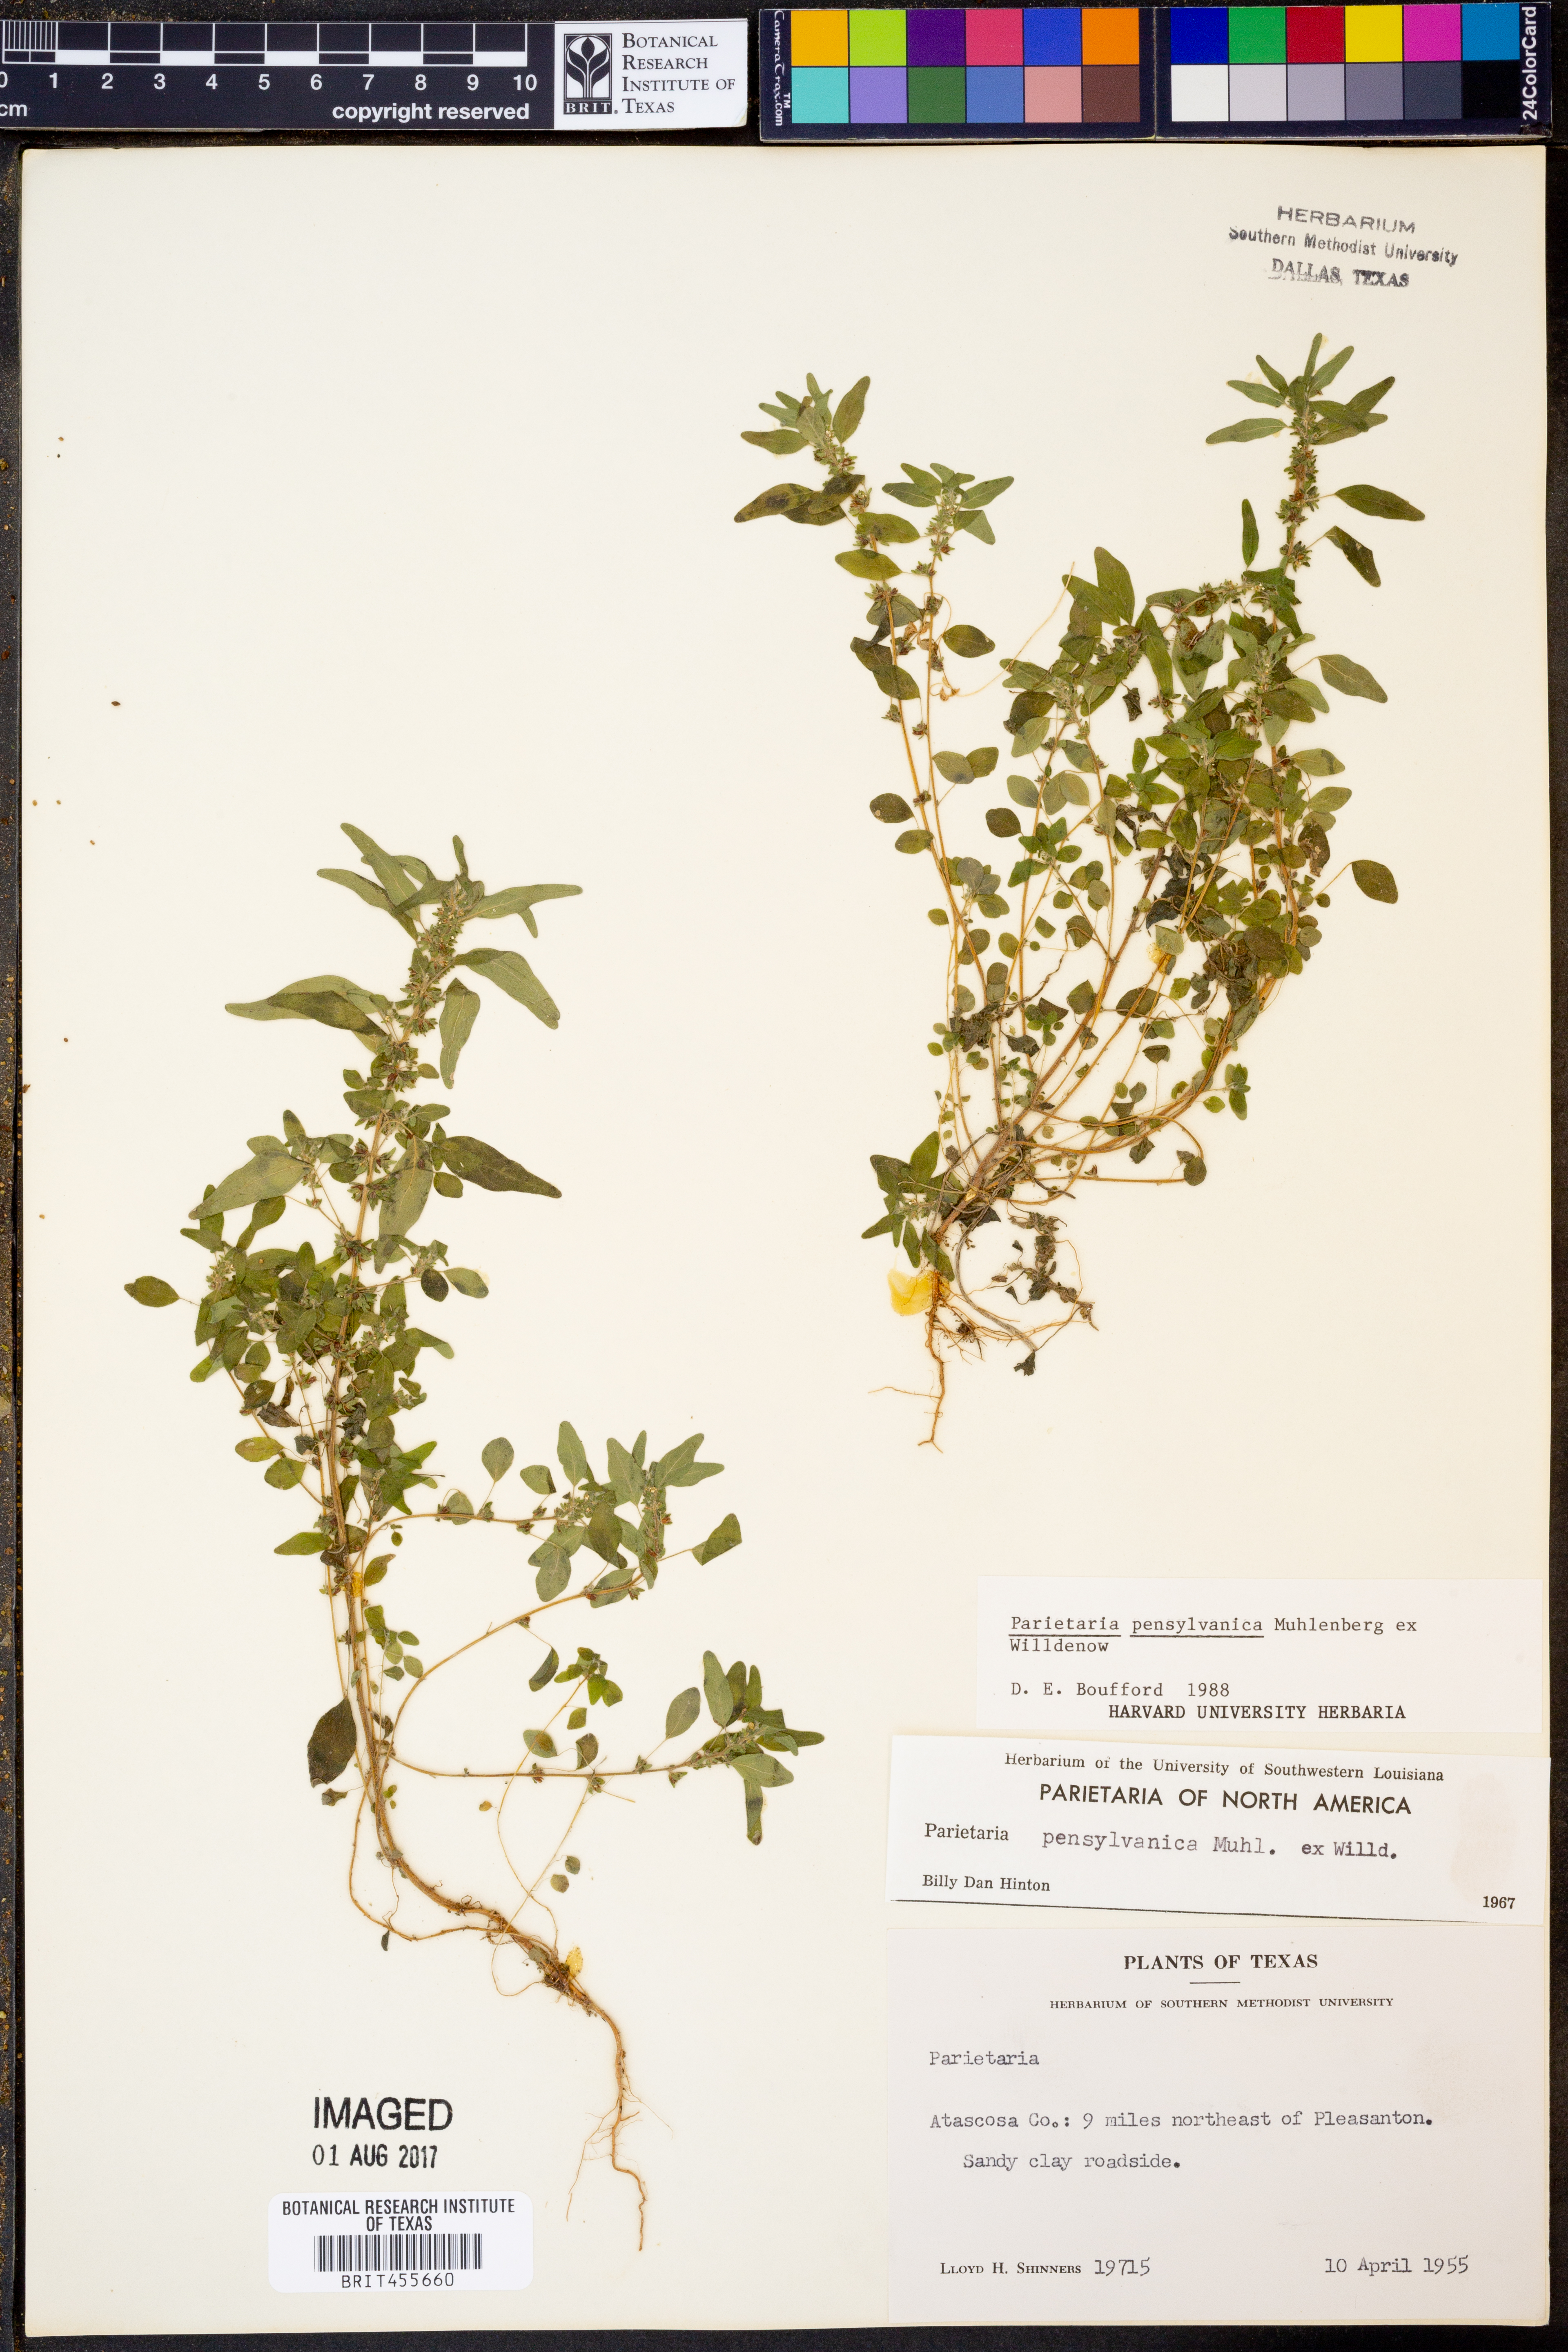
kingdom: Plantae
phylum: Tracheophyta
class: Magnoliopsida
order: Rosales
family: Urticaceae
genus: Parietaria
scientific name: Parietaria pensylvanica
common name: Pennsylvania pellitory
